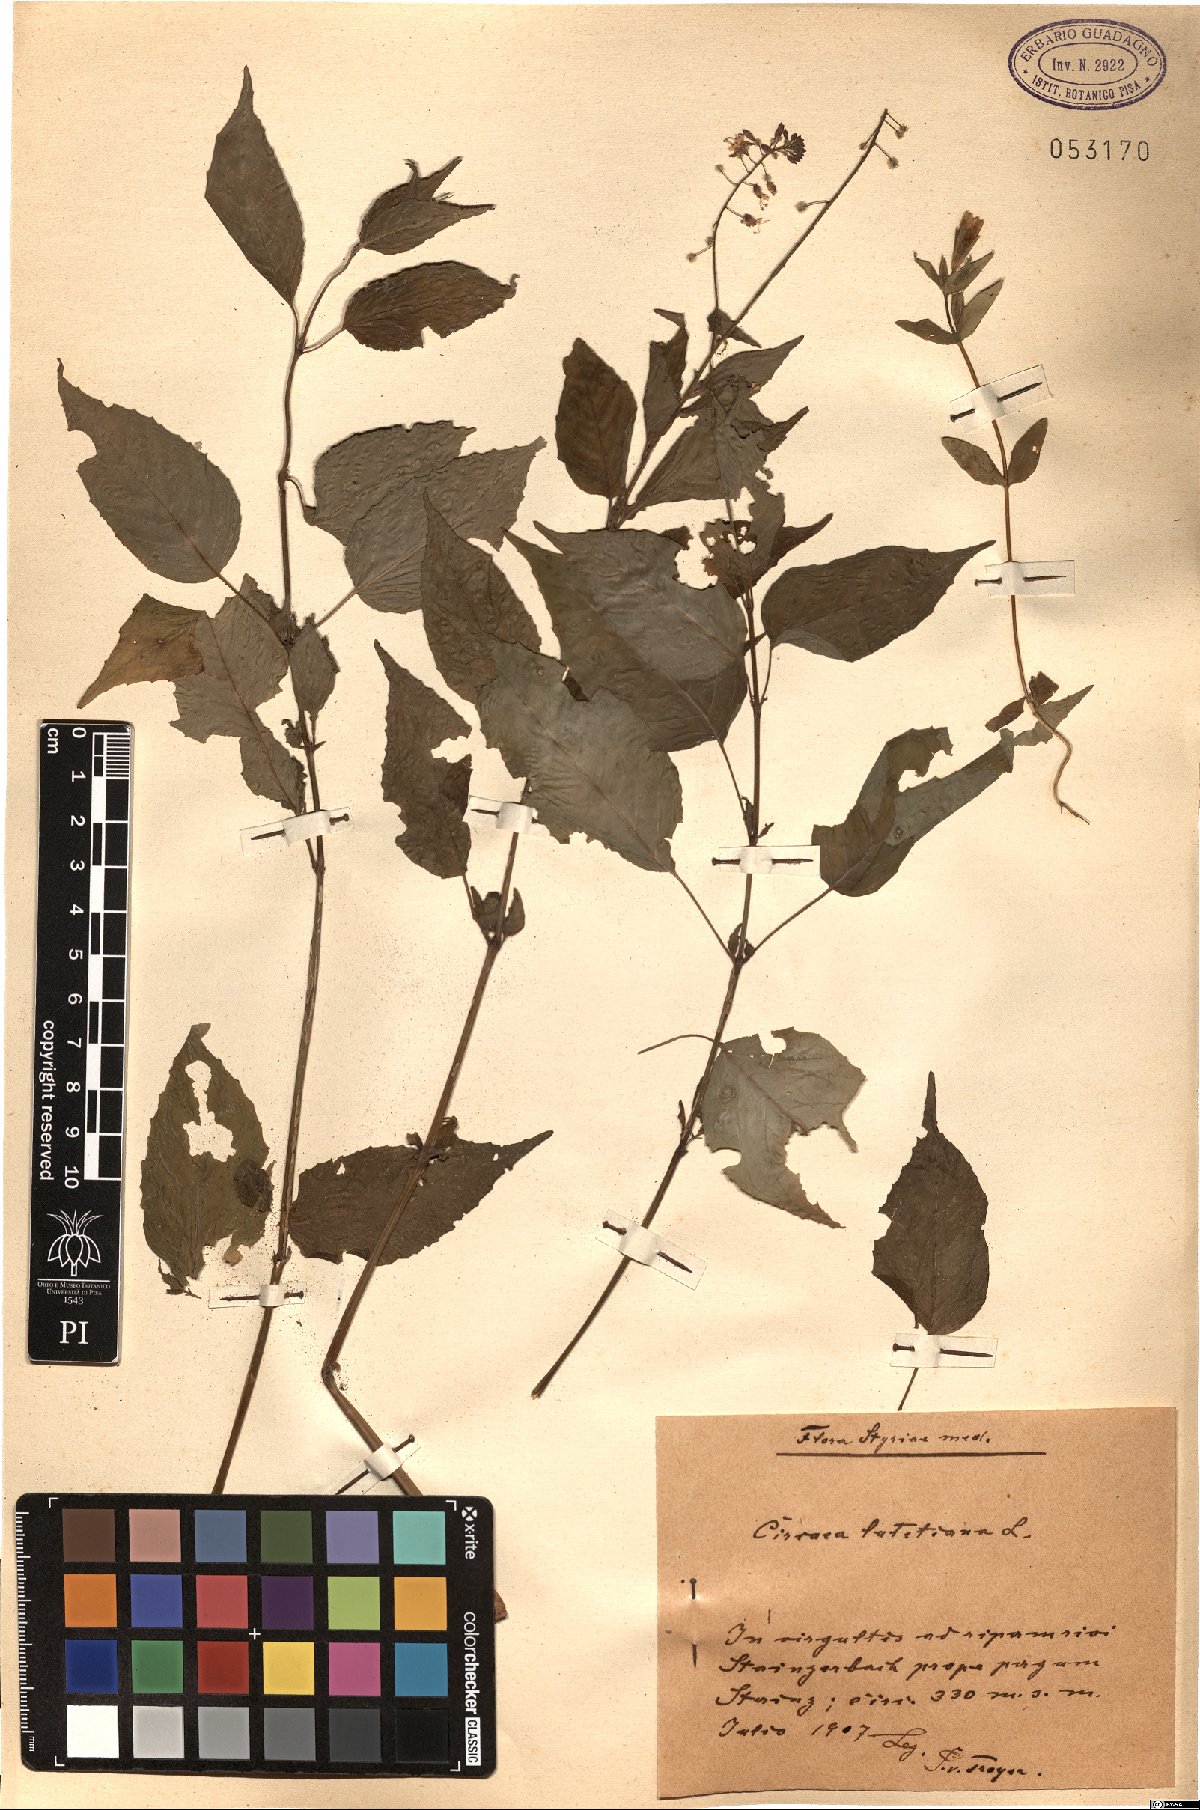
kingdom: Plantae
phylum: Tracheophyta
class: Magnoliopsida
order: Myrtales
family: Onagraceae
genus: Circaea
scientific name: Circaea lutetiana
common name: Enchanter's-nightshade
